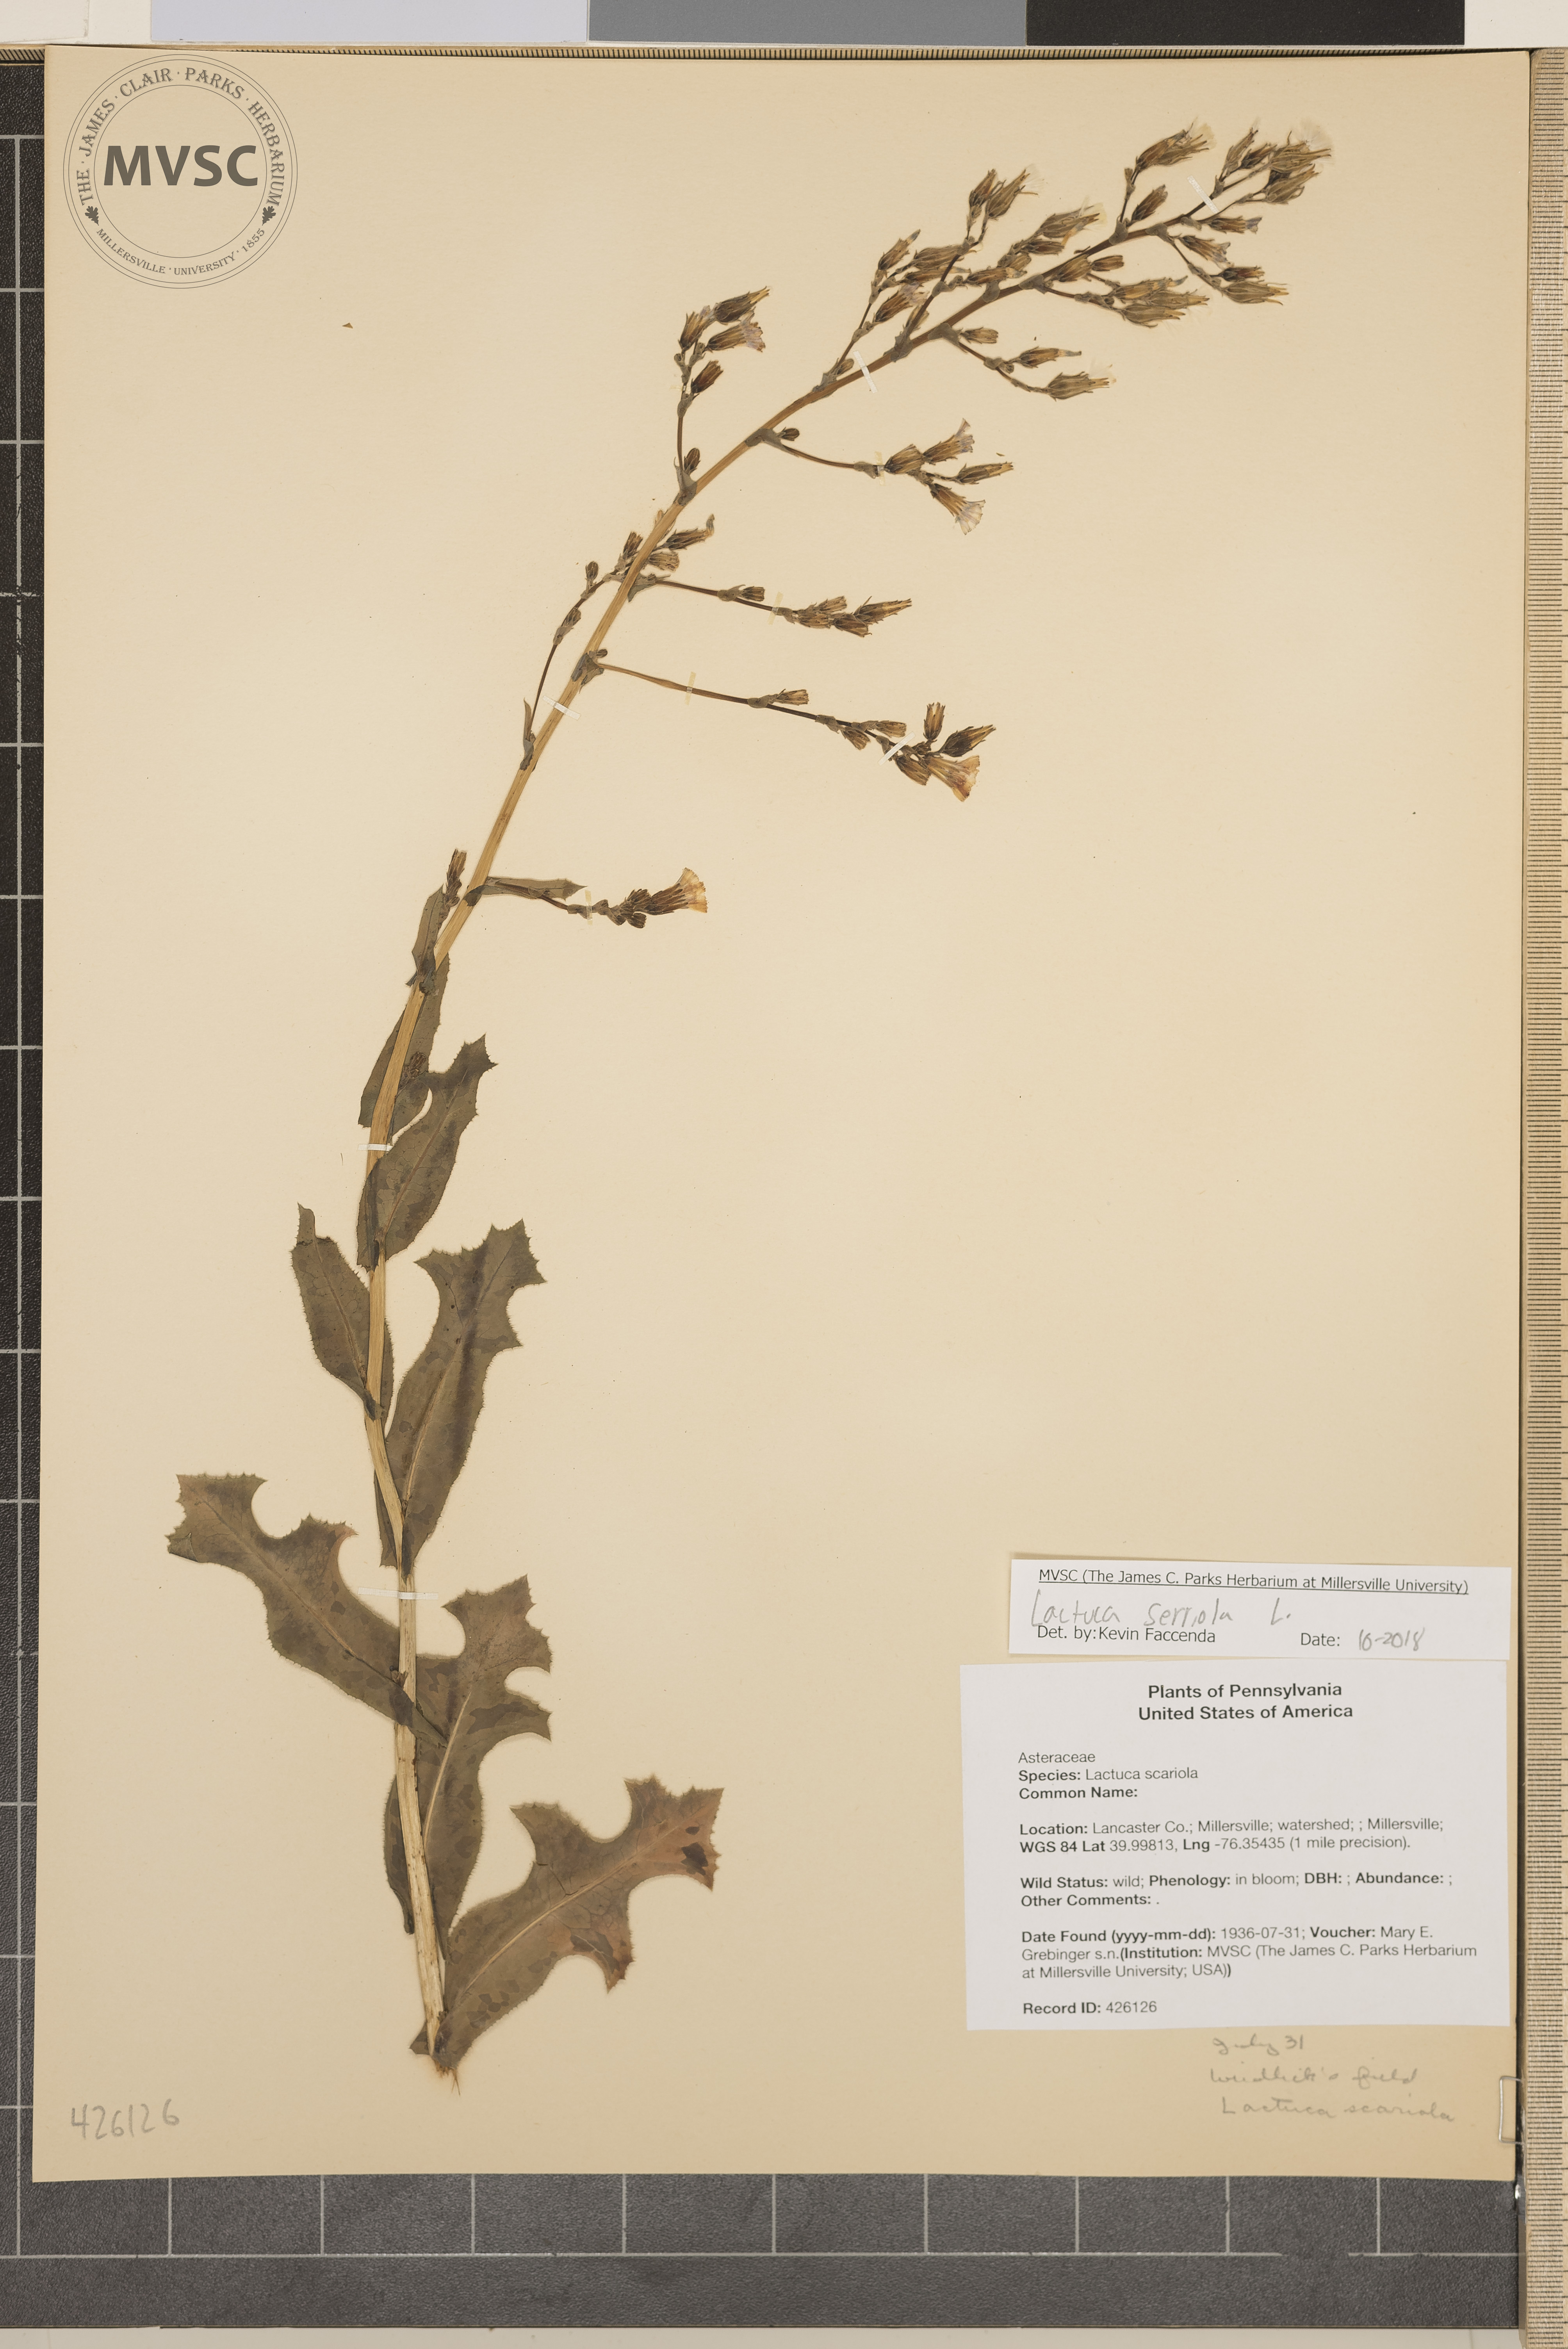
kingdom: Plantae
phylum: Tracheophyta
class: Magnoliopsida
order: Asterales
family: Asteraceae
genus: Lactuca
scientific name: Lactuca serriola
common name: Prickly lettuce
